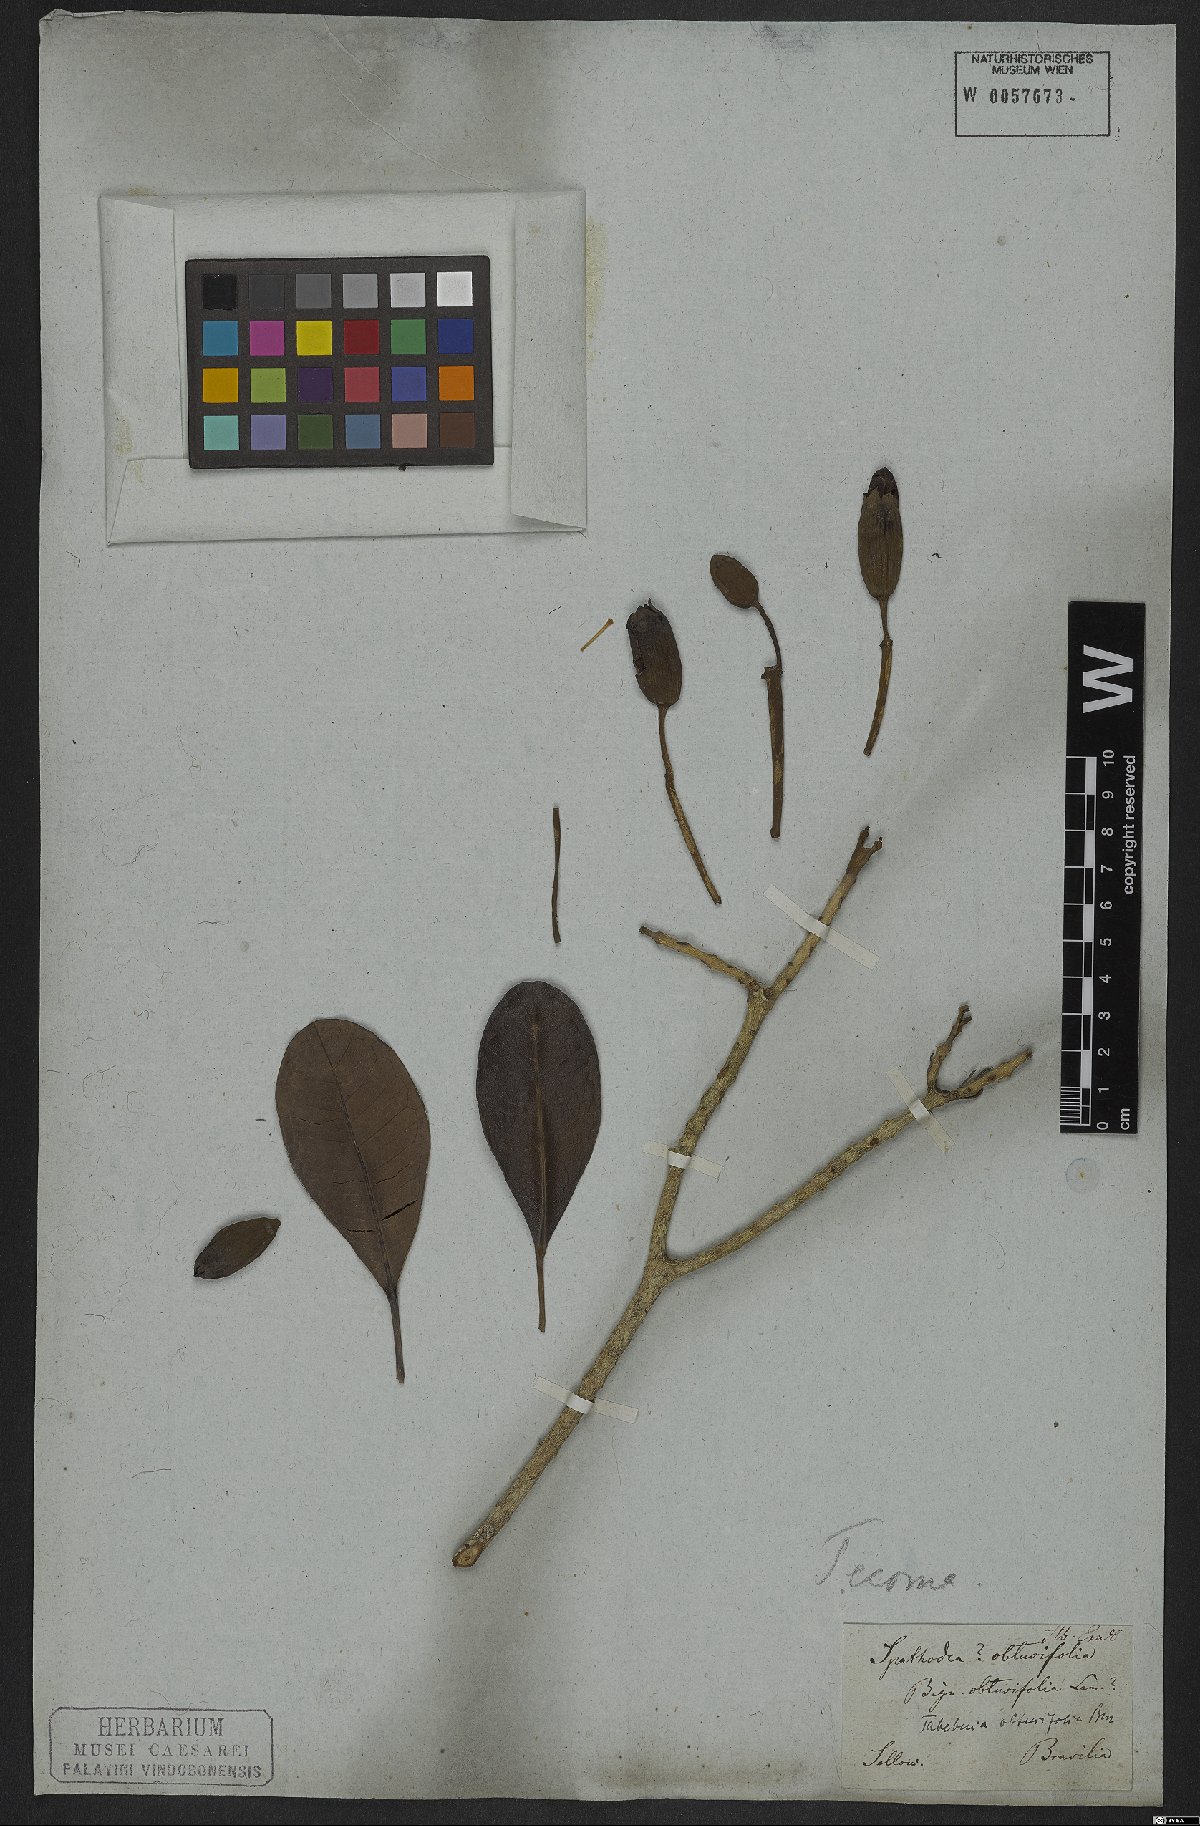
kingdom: Plantae
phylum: Tracheophyta
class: Magnoliopsida
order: Lamiales
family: Bignoniaceae
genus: Tabebuia
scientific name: Tabebuia obtusifolia
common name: Guadeloupe trumpet-tree
